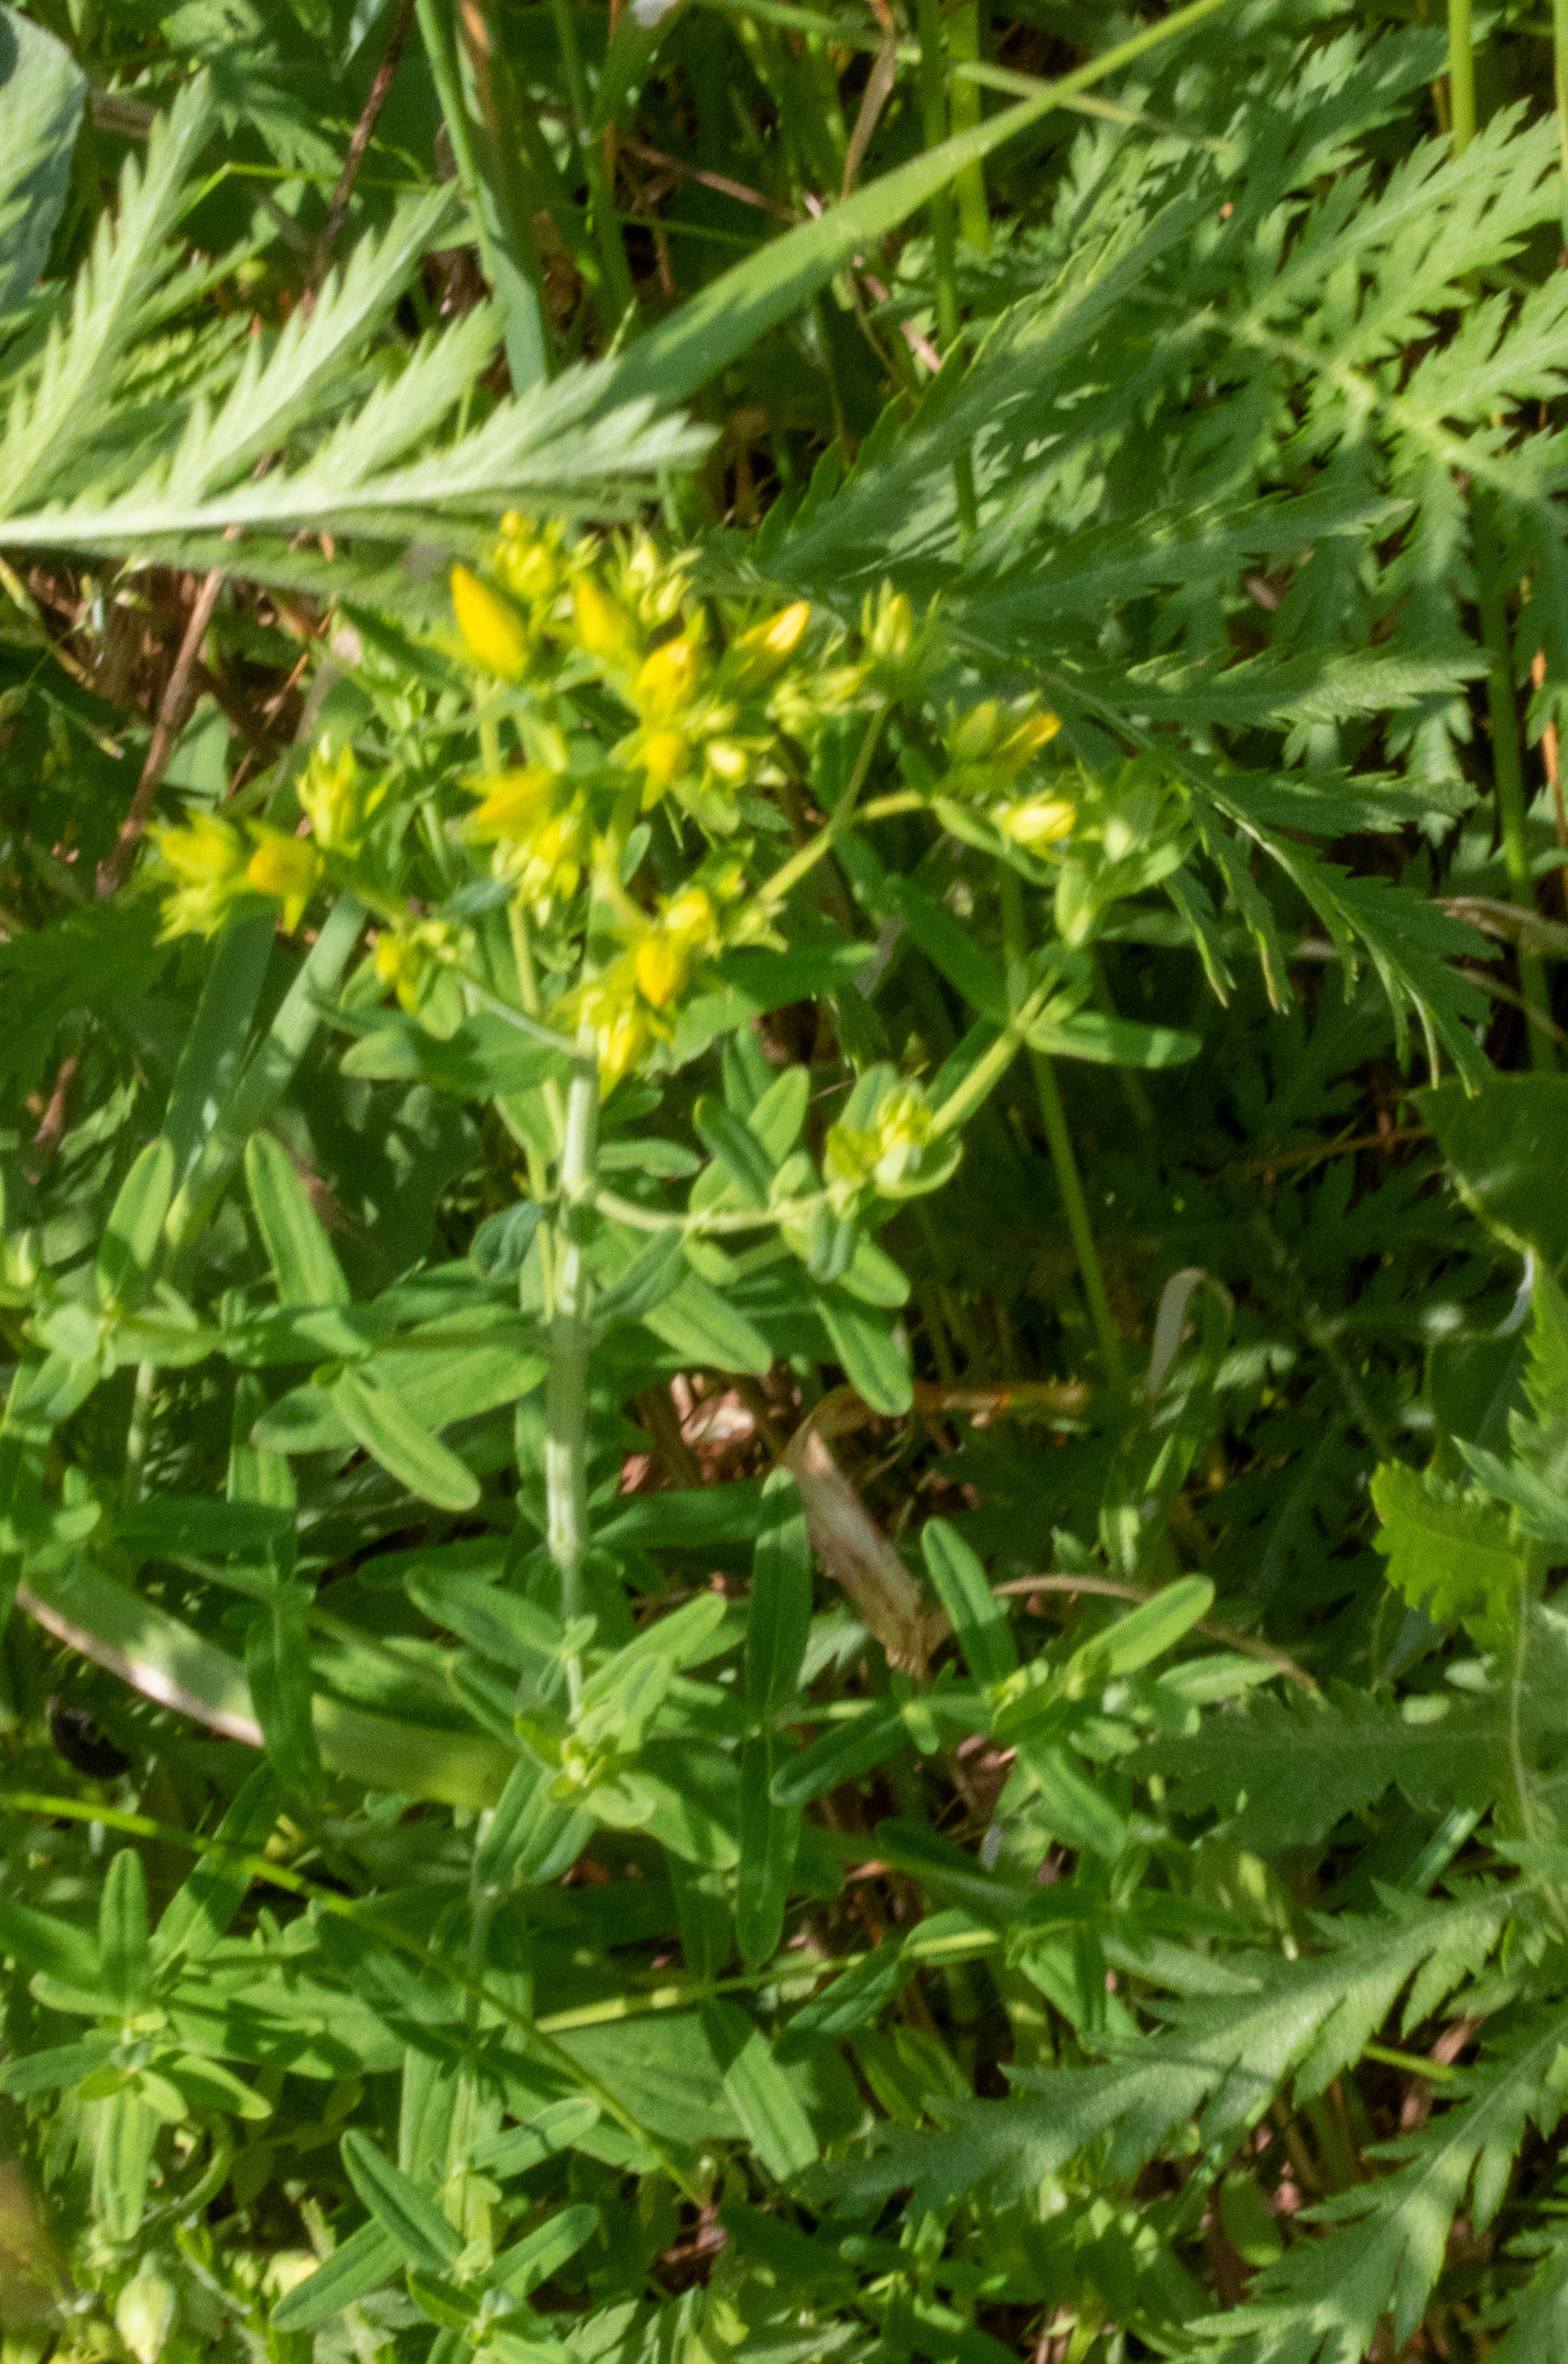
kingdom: Plantae
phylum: Tracheophyta
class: Magnoliopsida
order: Malpighiales
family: Hypericaceae
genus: Hypericum
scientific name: Hypericum
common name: Perikonslægten
